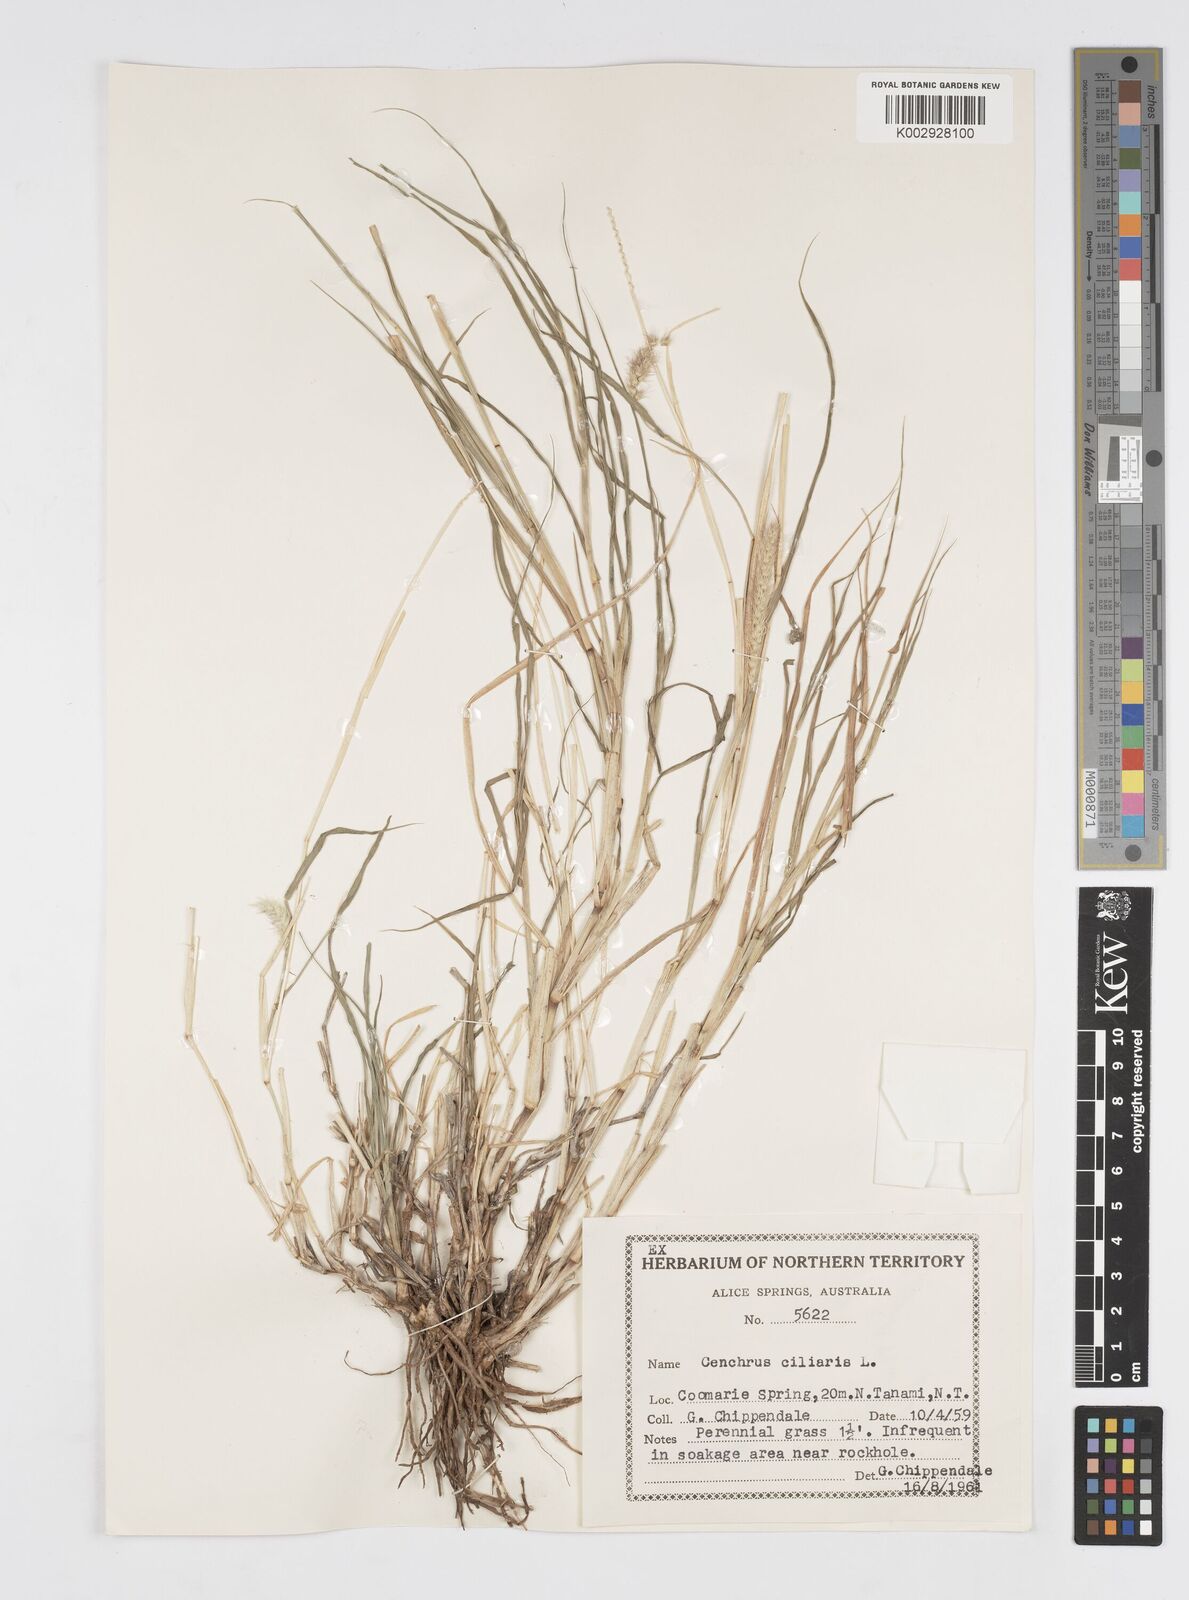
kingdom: Plantae
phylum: Tracheophyta
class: Liliopsida
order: Poales
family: Poaceae
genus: Cenchrus
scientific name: Cenchrus ciliaris
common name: Buffelgrass
